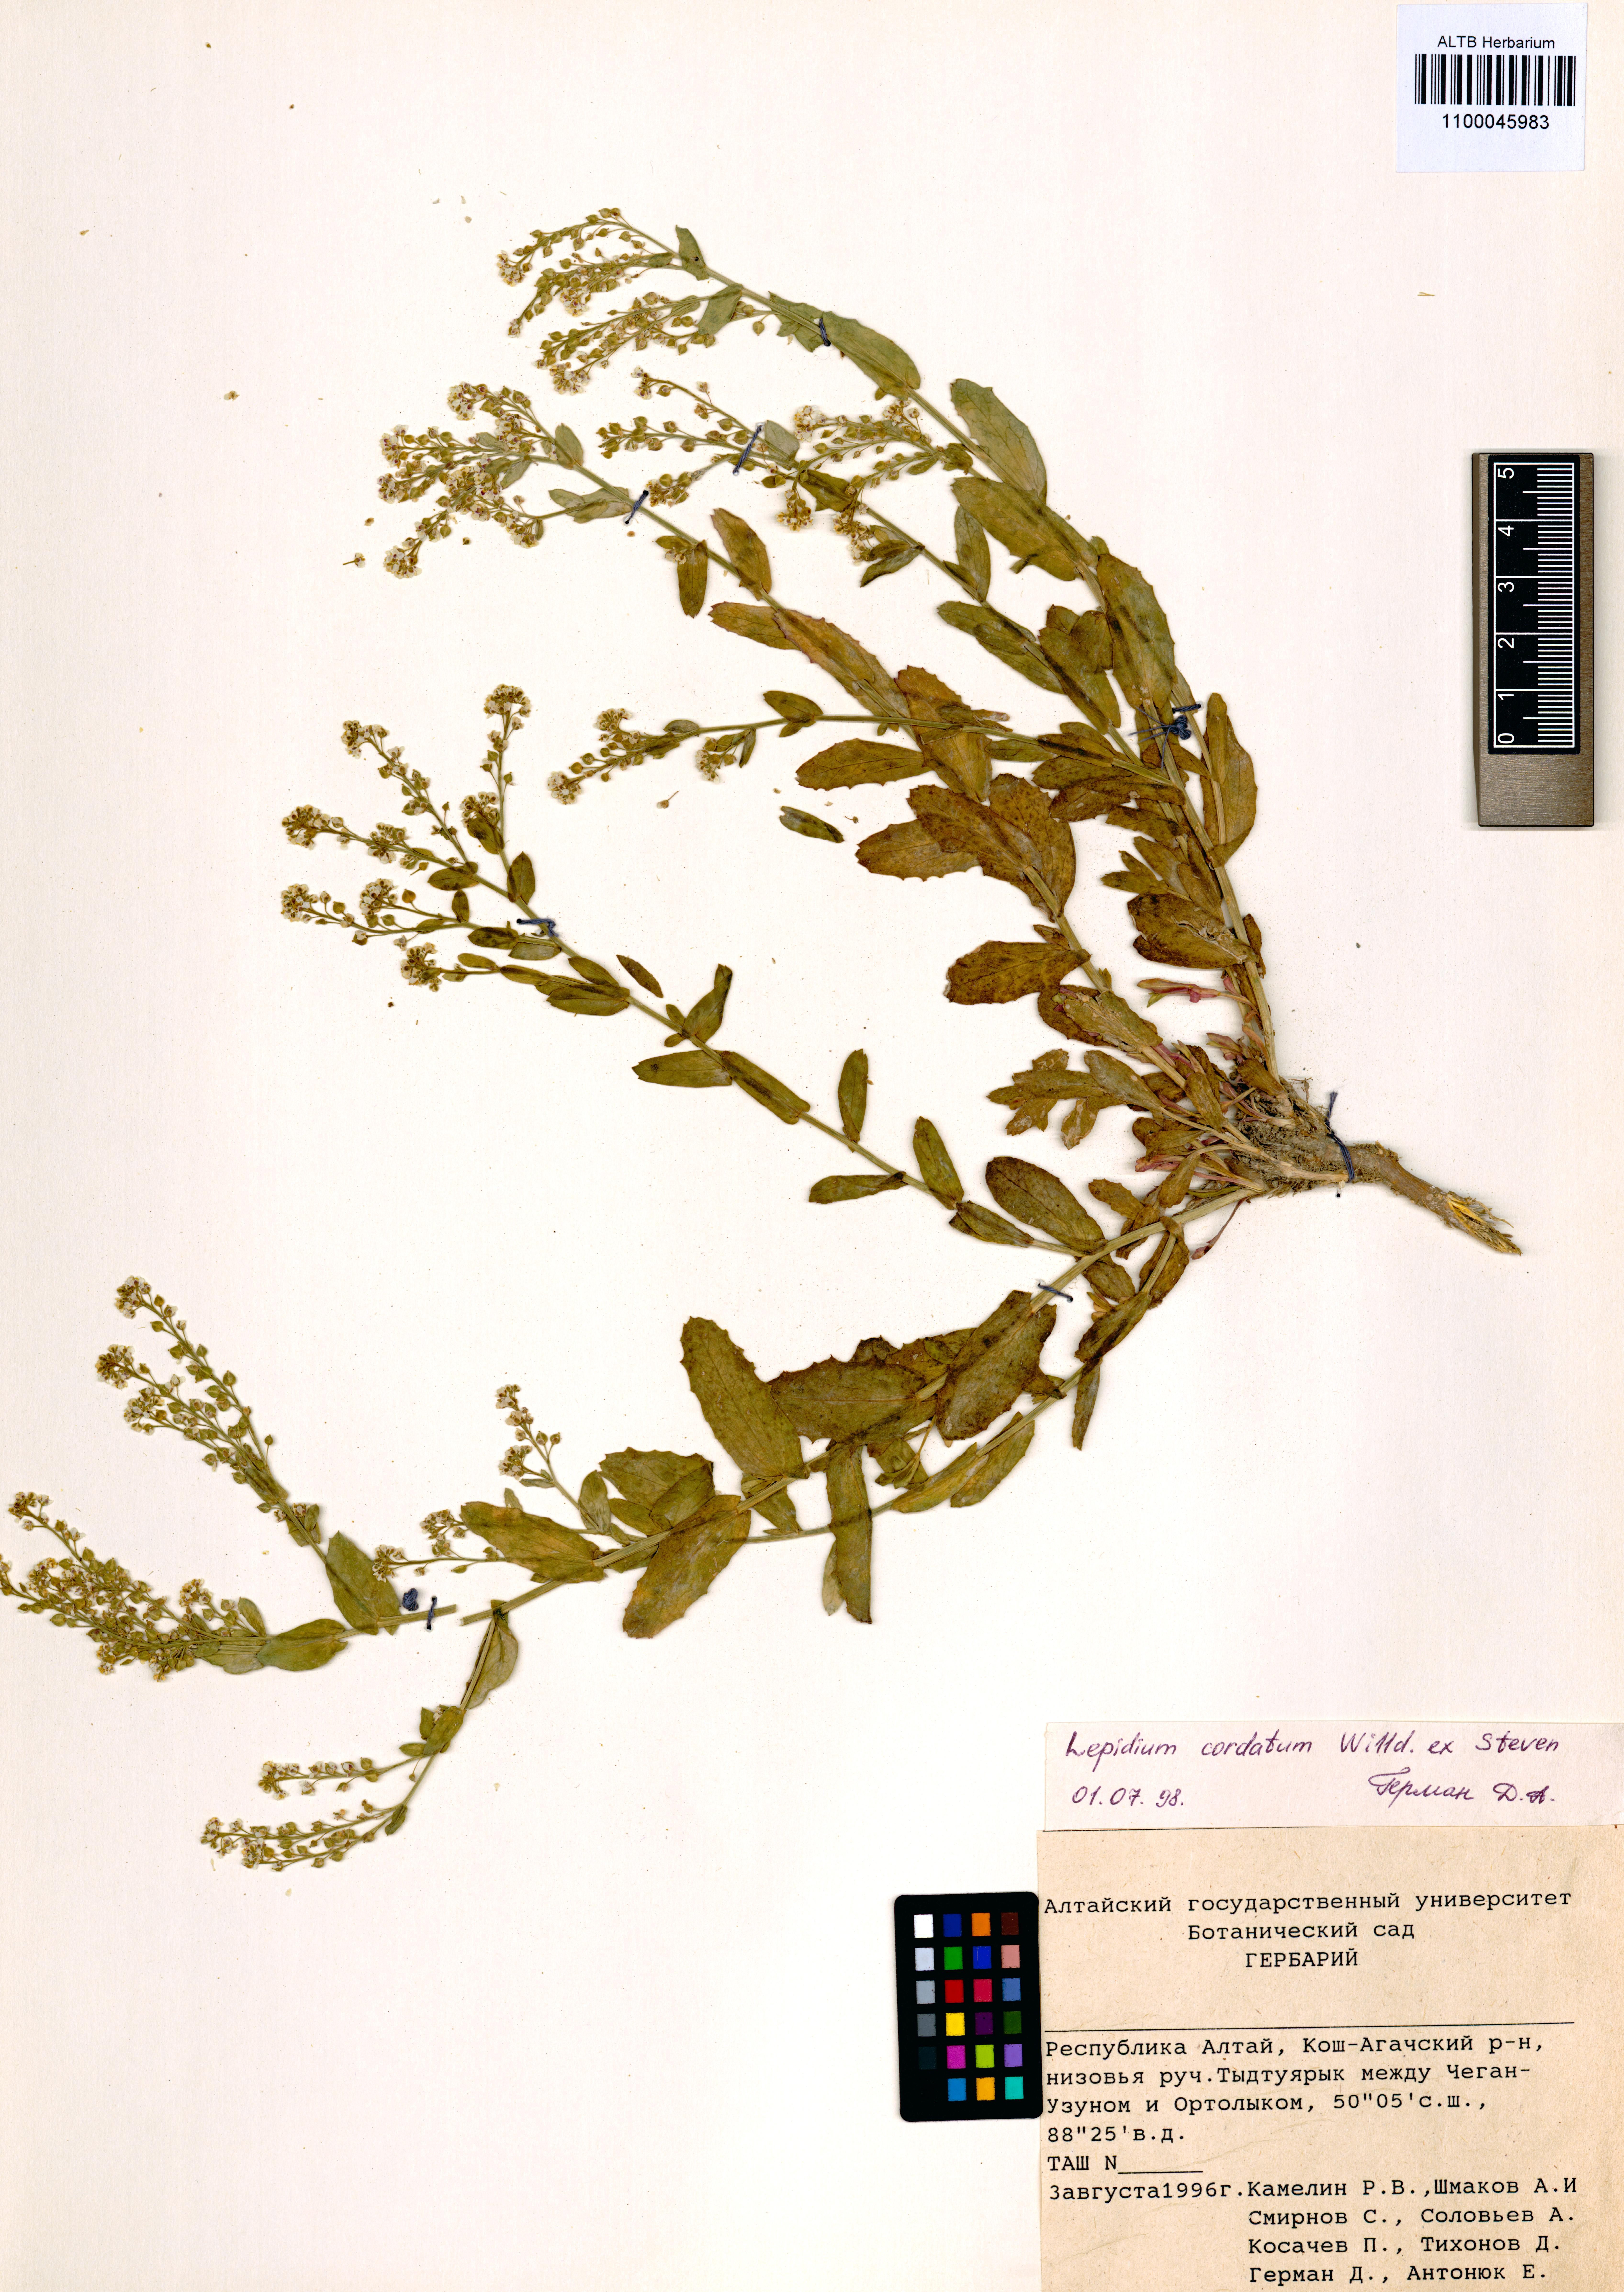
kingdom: Plantae
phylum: Tracheophyta
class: Magnoliopsida
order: Brassicales
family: Brassicaceae
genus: Lepidium
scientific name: Lepidium cordatum
